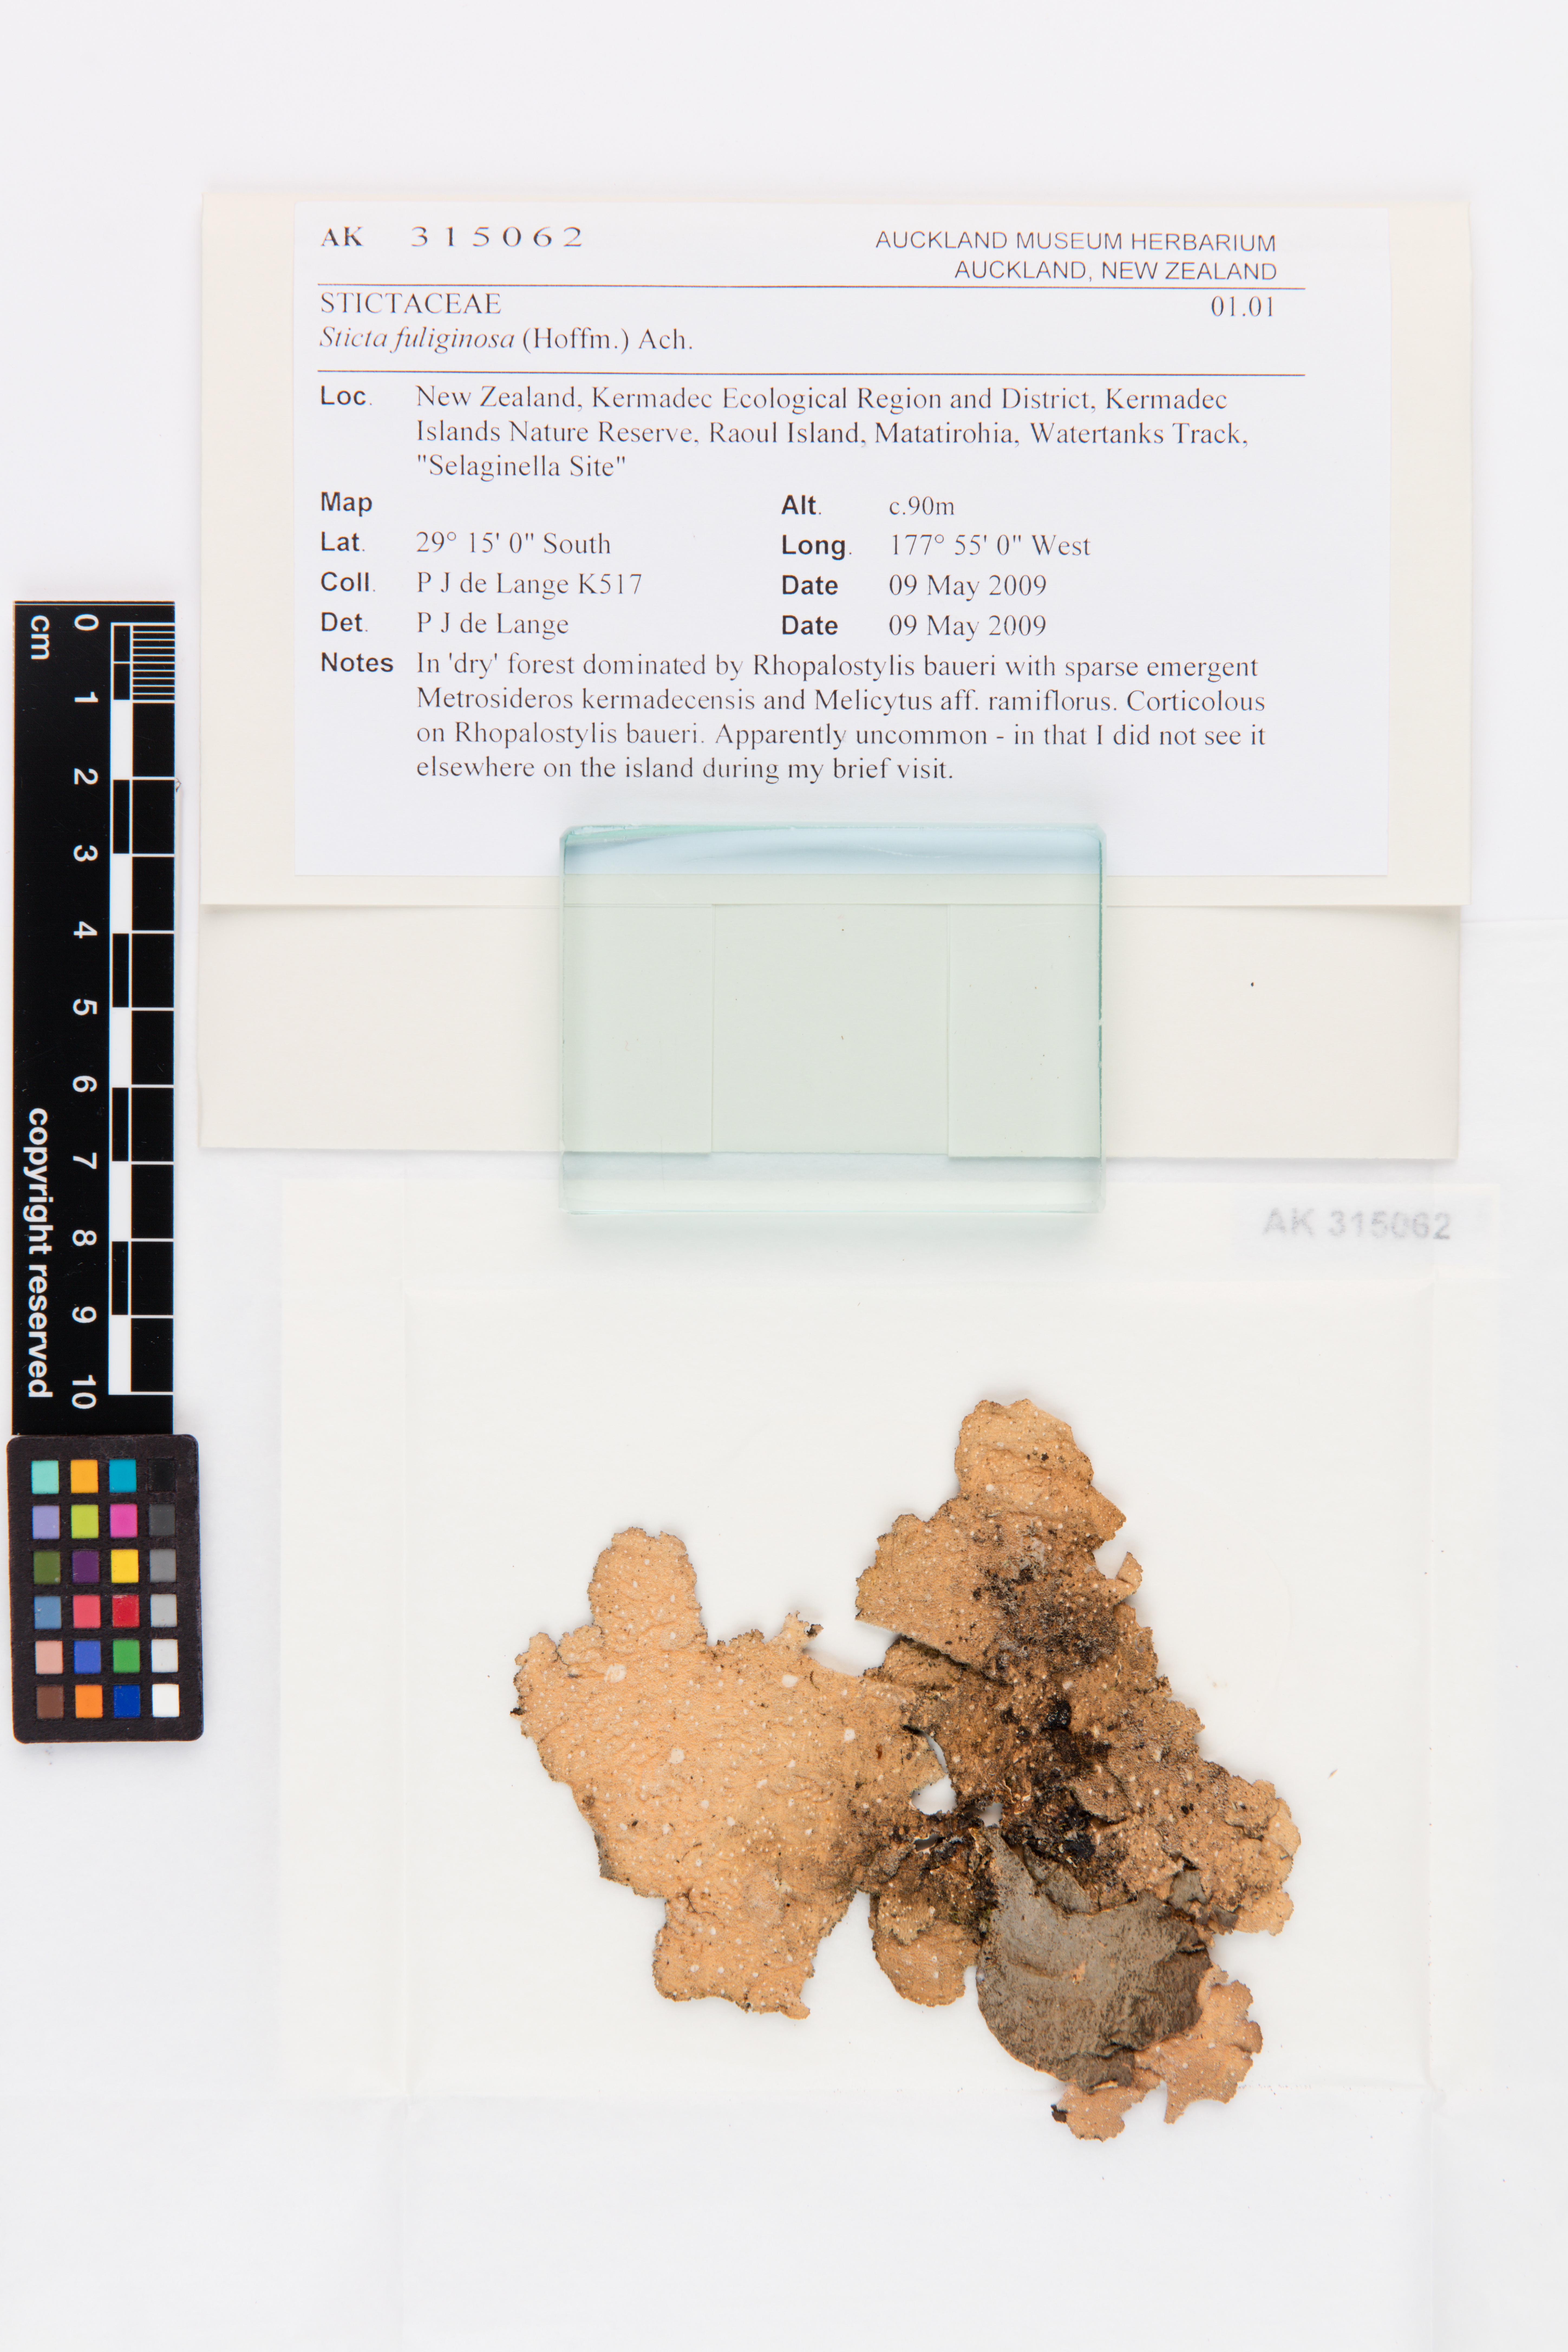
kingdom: Fungi
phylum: Ascomycota
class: Lecanoromycetes
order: Peltigerales
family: Lobariaceae
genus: Sticta
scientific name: Sticta fuliginosa
